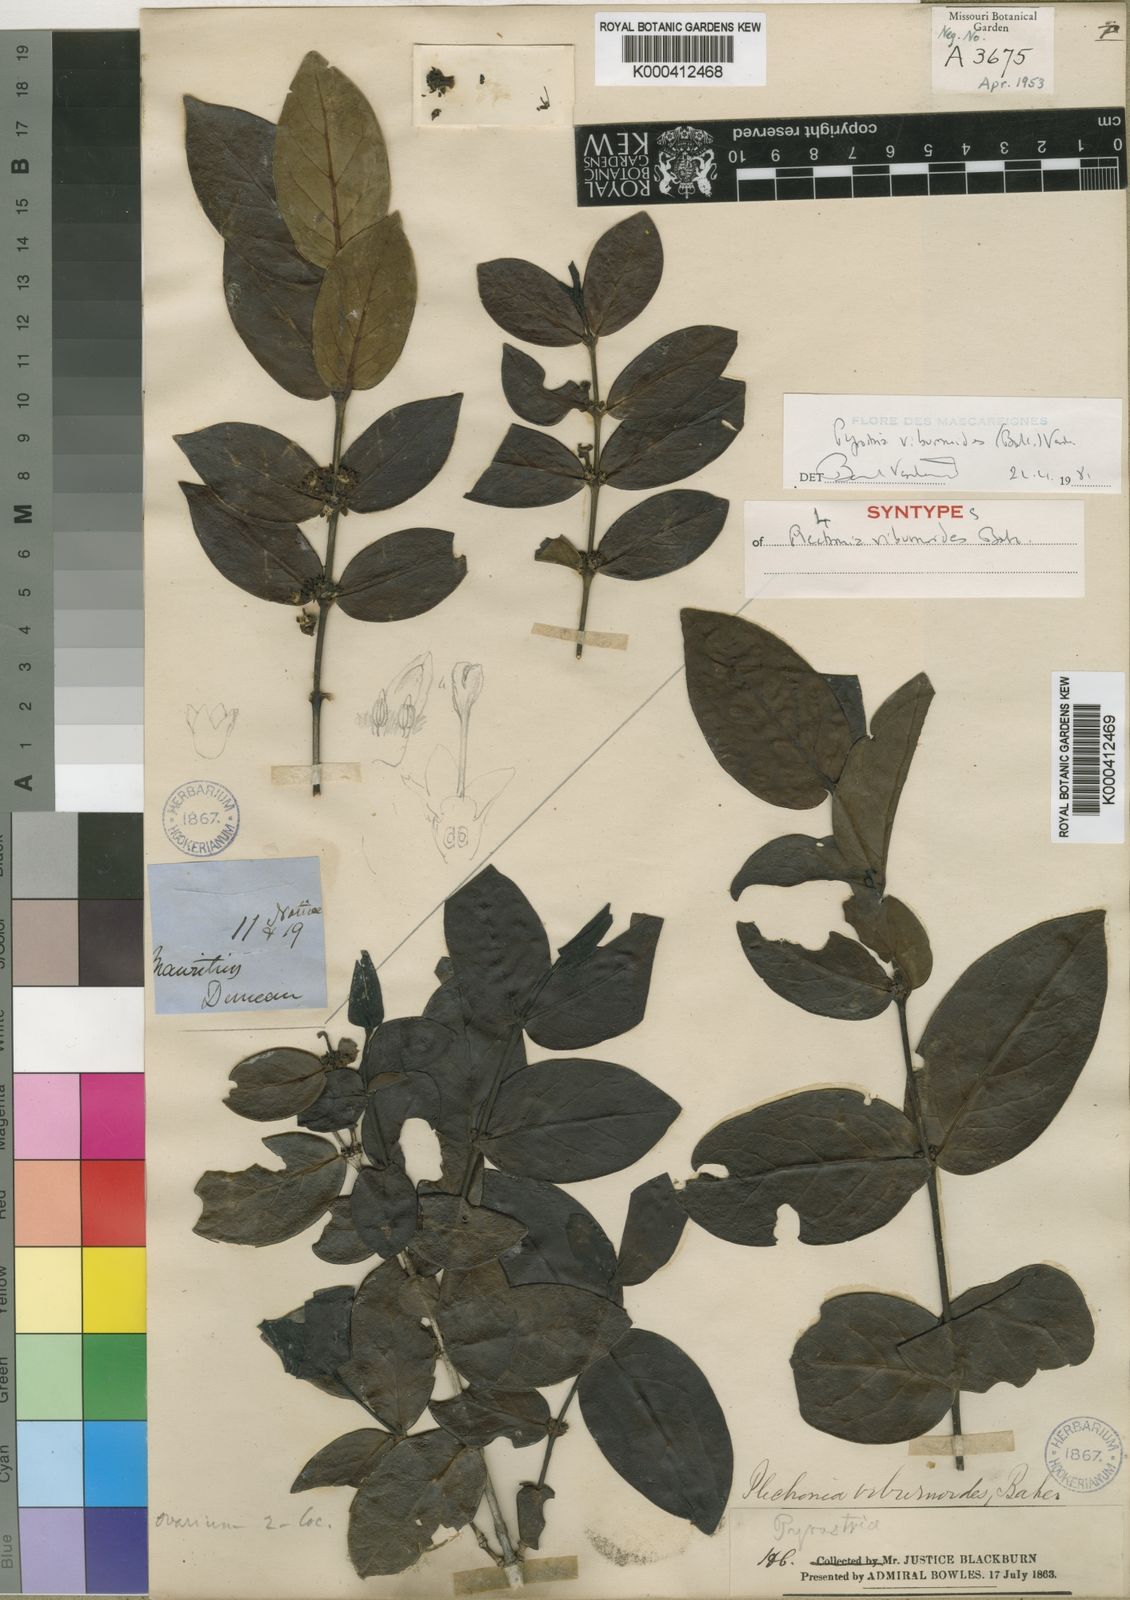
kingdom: Plantae
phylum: Tracheophyta
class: Magnoliopsida
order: Gentianales
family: Rubiaceae
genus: Pyrostria
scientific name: Pyrostria viburnoides
